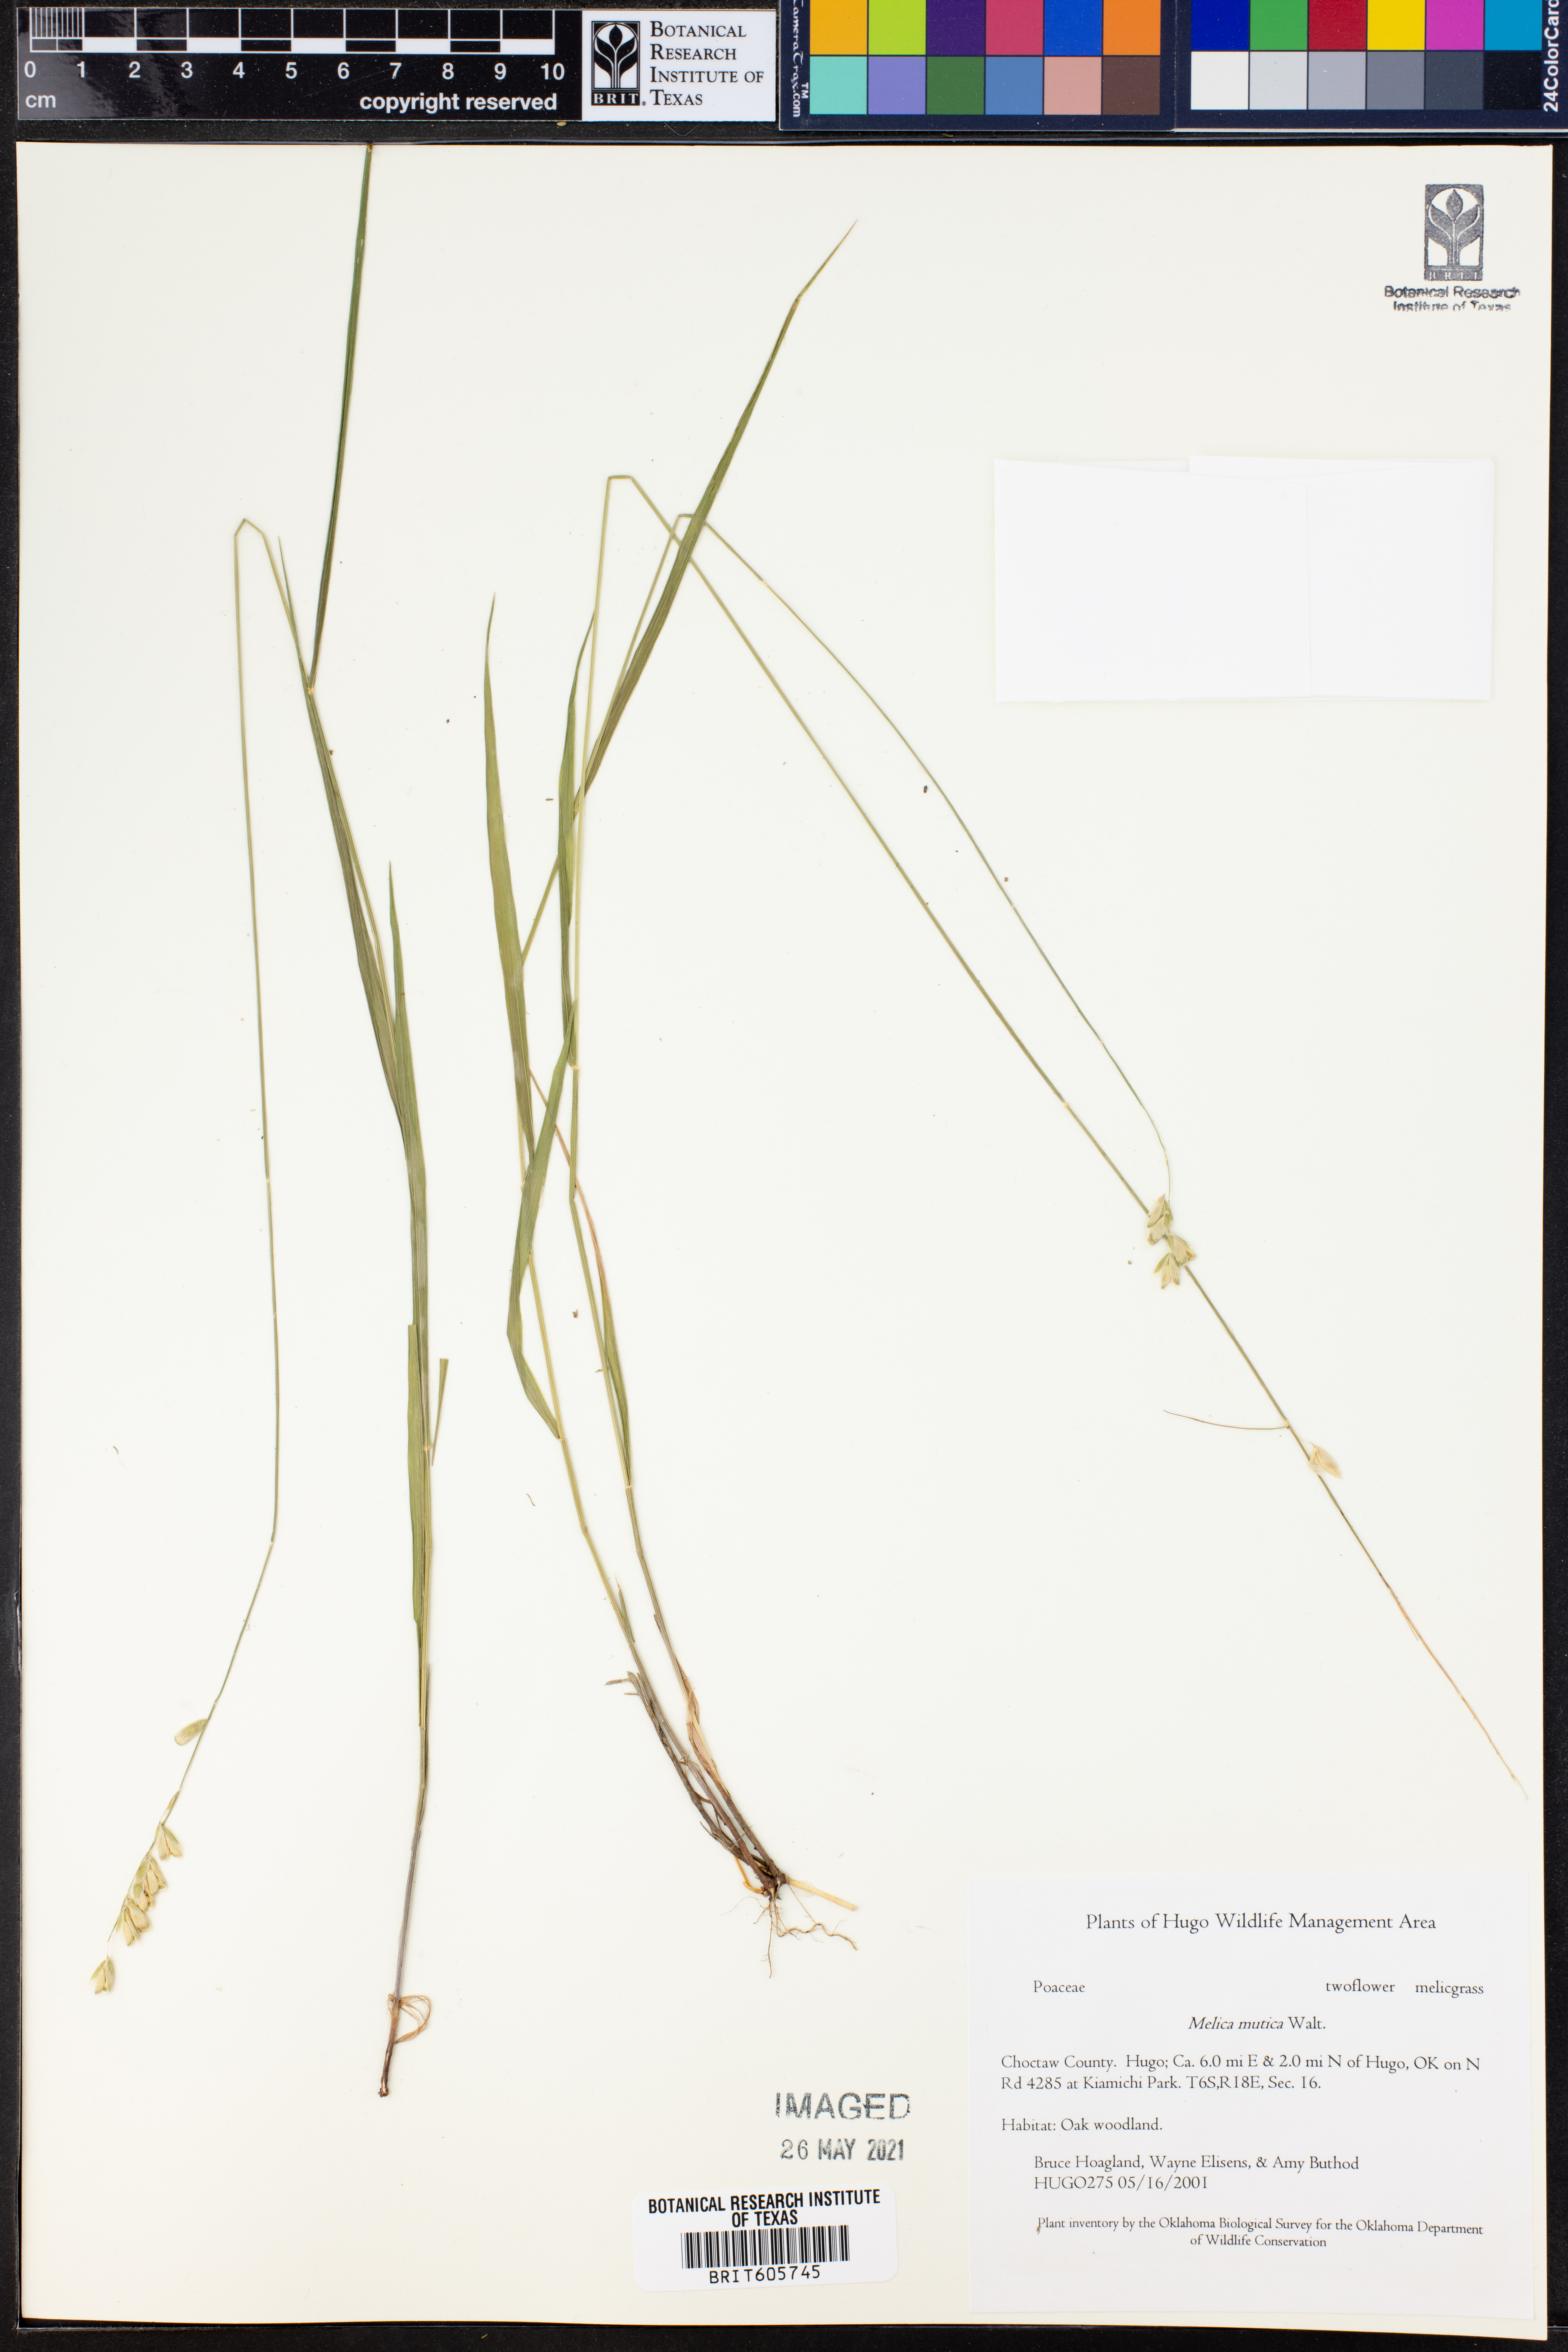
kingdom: Plantae
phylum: Tracheophyta
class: Liliopsida
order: Poales
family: Poaceae
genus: Melica
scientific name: Melica mutica
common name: Two-flower melic
